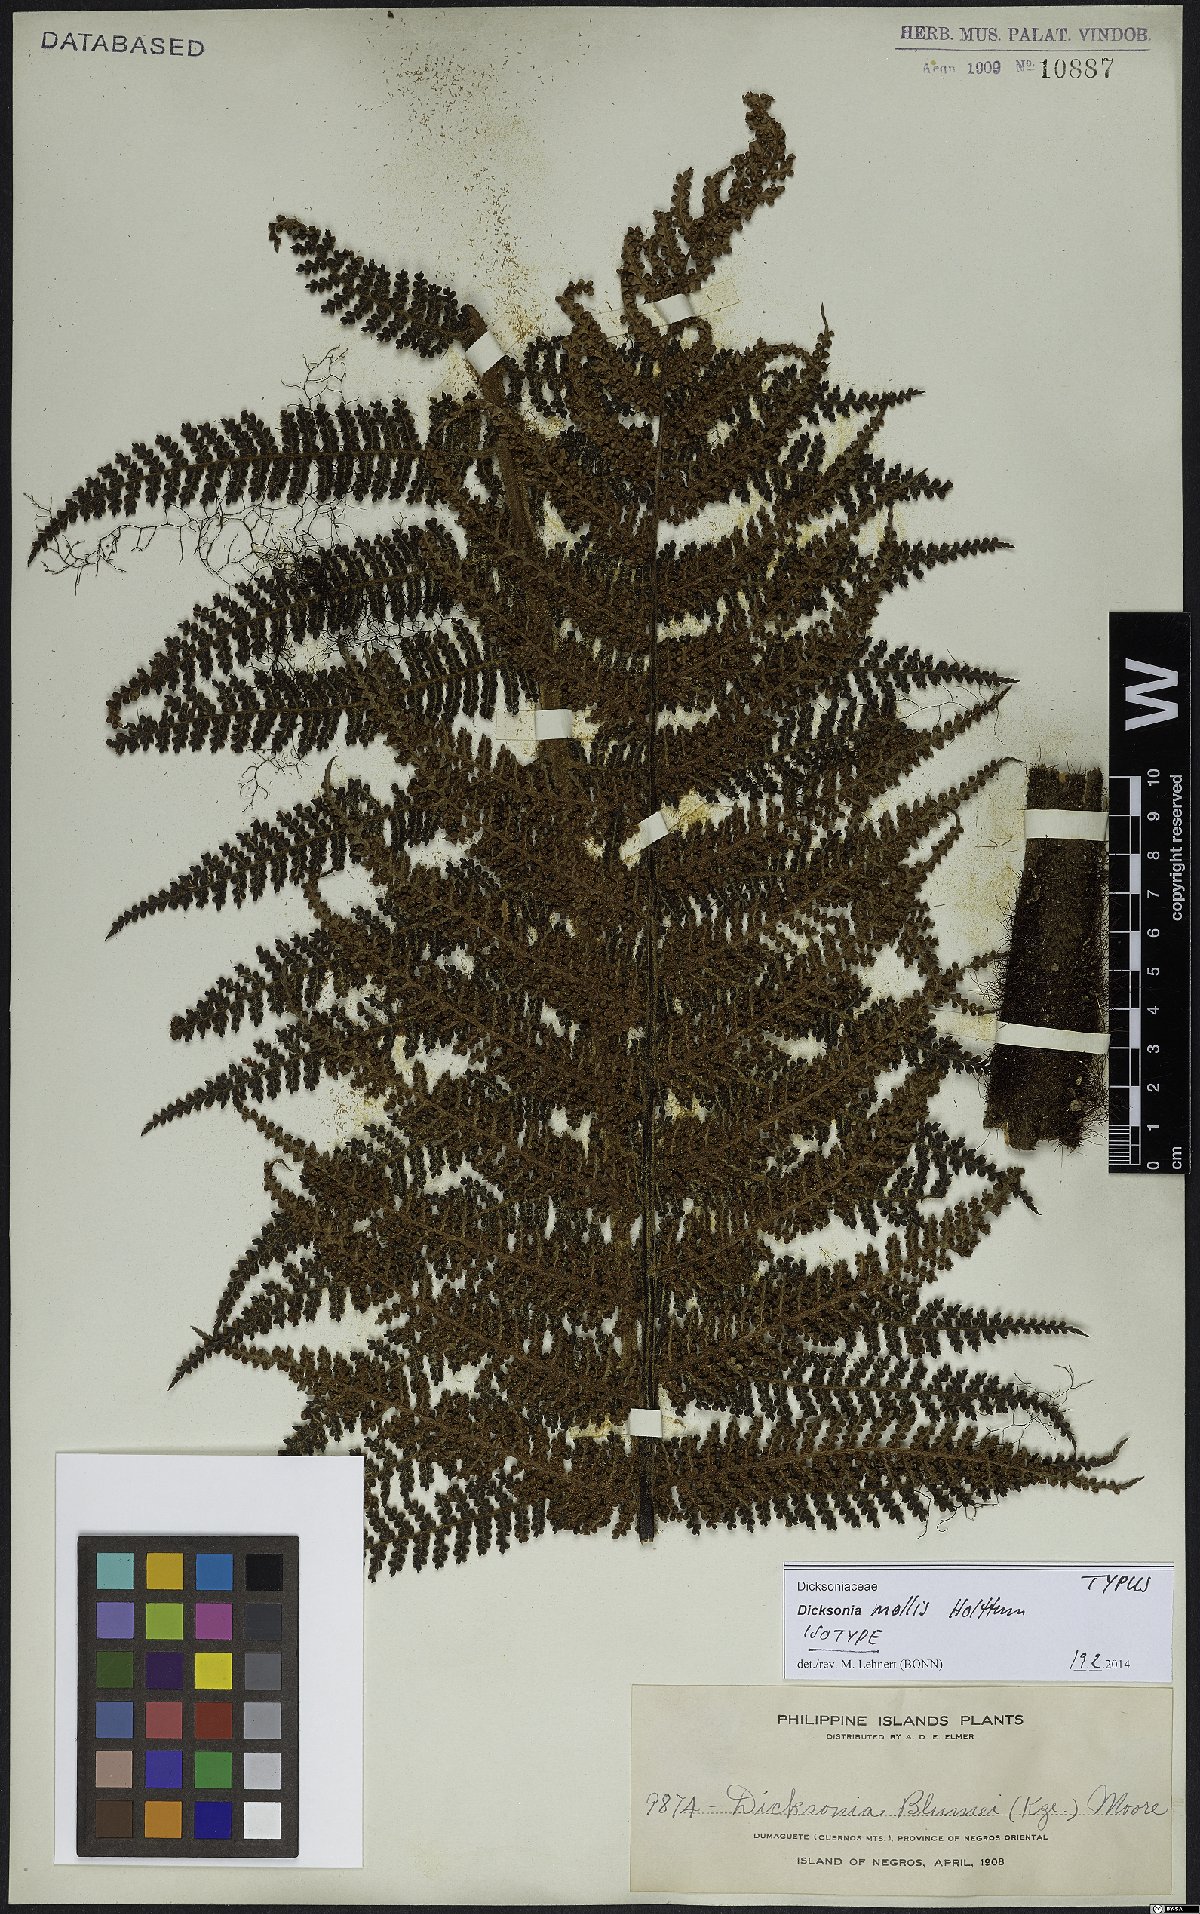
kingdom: Plantae
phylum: Tracheophyta
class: Polypodiopsida
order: Cyatheales
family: Dicksoniaceae
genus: Dicksonia
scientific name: Dicksonia mollis
